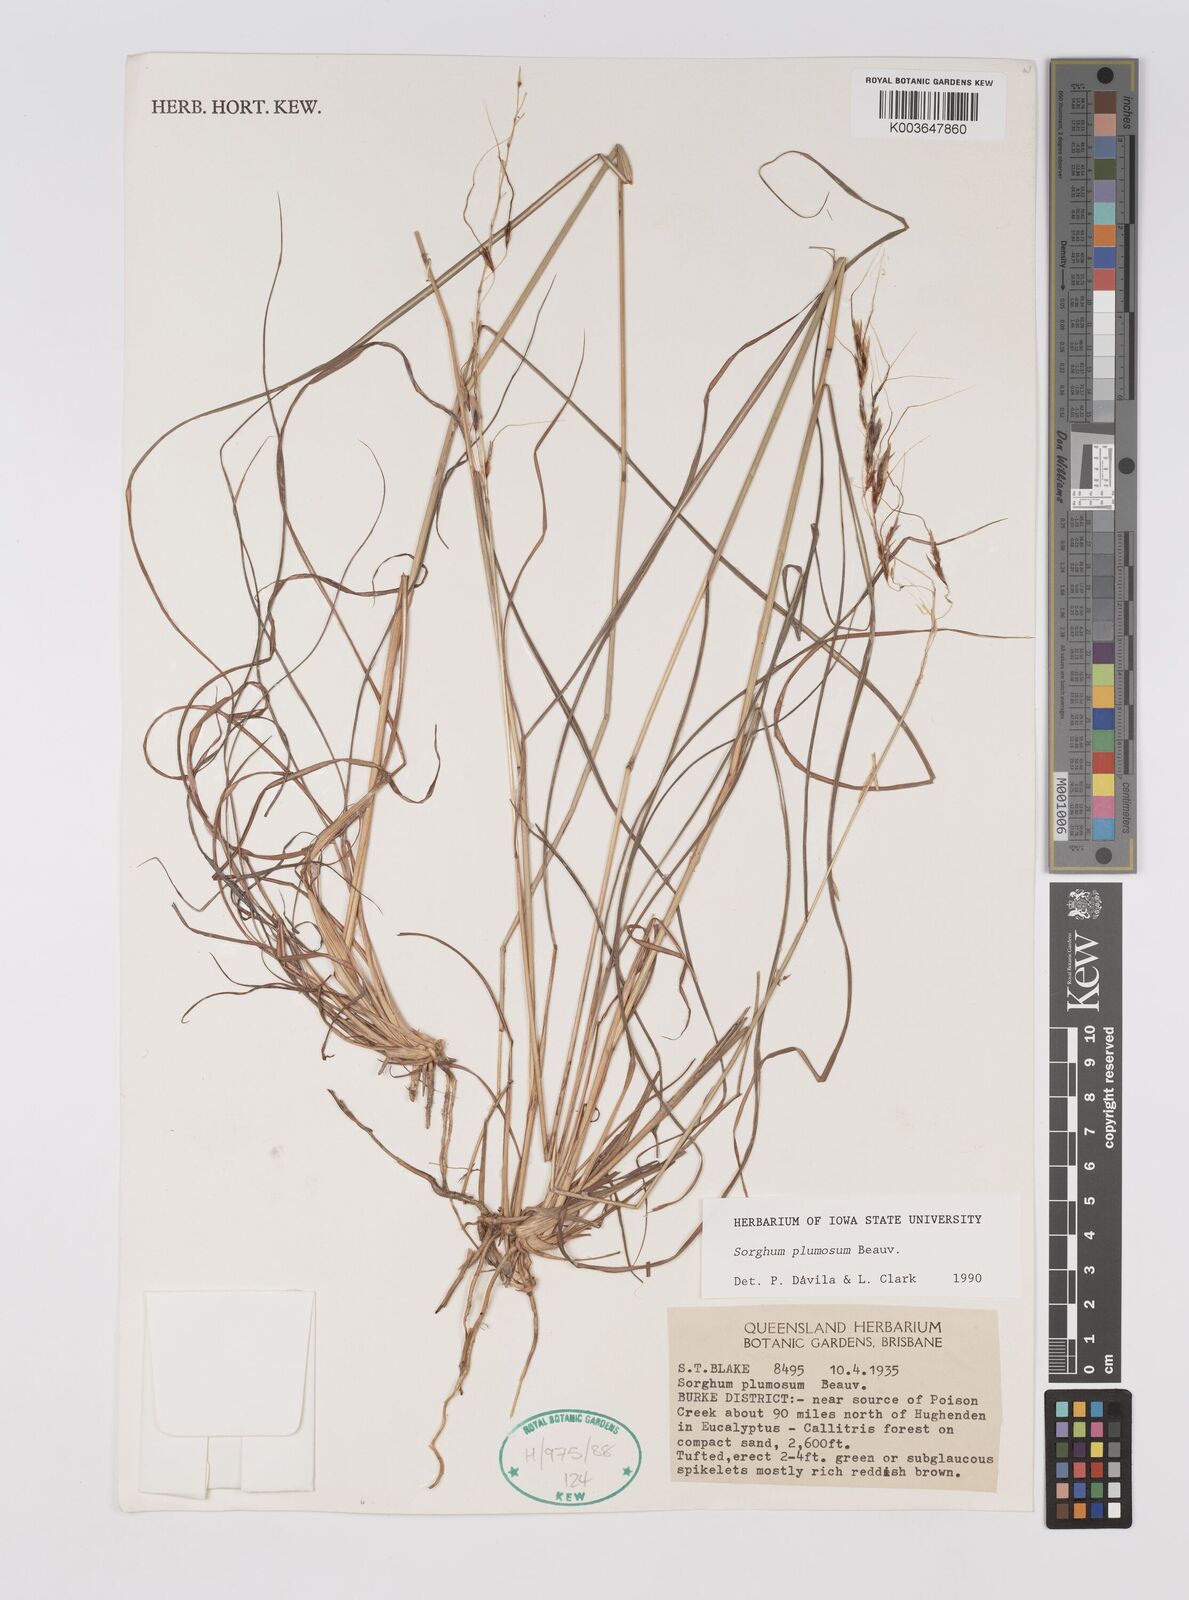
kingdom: Plantae
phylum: Tracheophyta
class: Liliopsida
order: Poales
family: Poaceae
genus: Sarga
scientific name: Sarga plumosa
